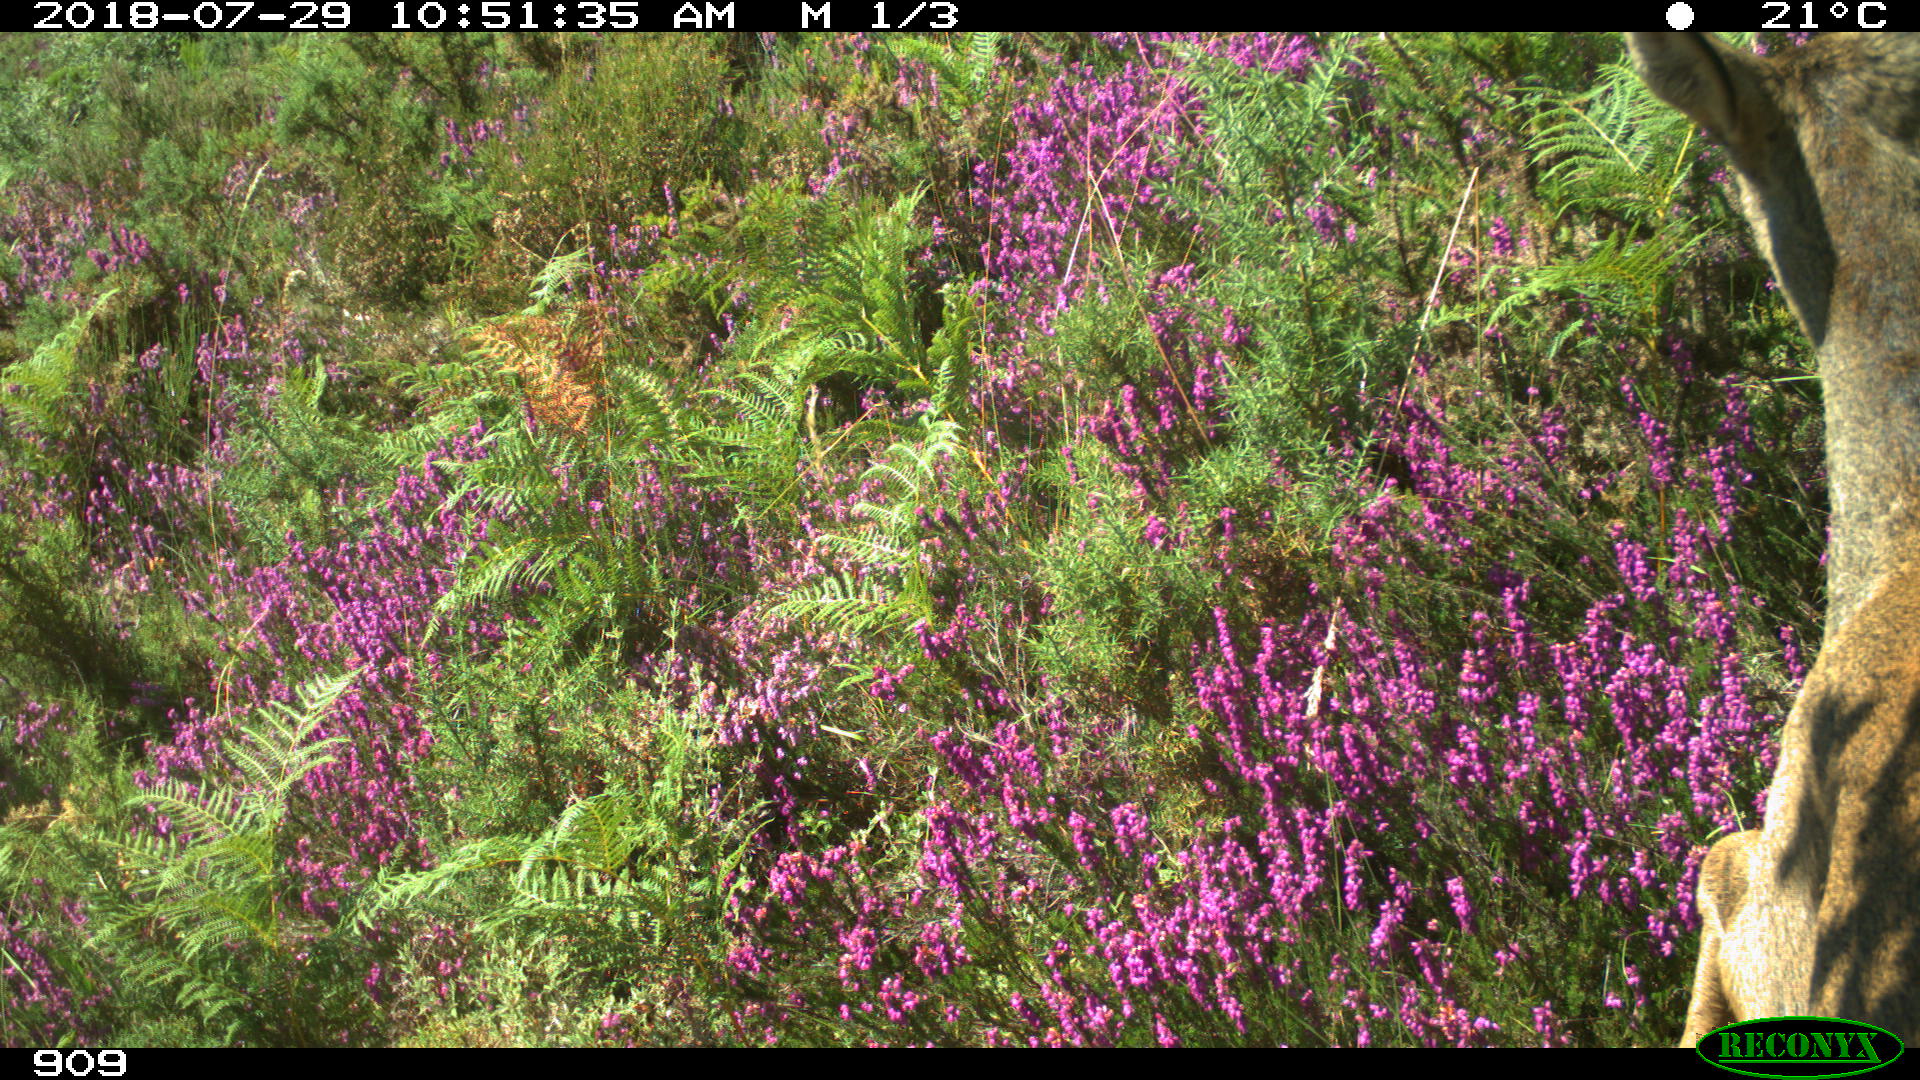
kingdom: Animalia
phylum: Chordata
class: Mammalia
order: Artiodactyla
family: Cervidae
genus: Capreolus
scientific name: Capreolus capreolus
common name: Western roe deer
